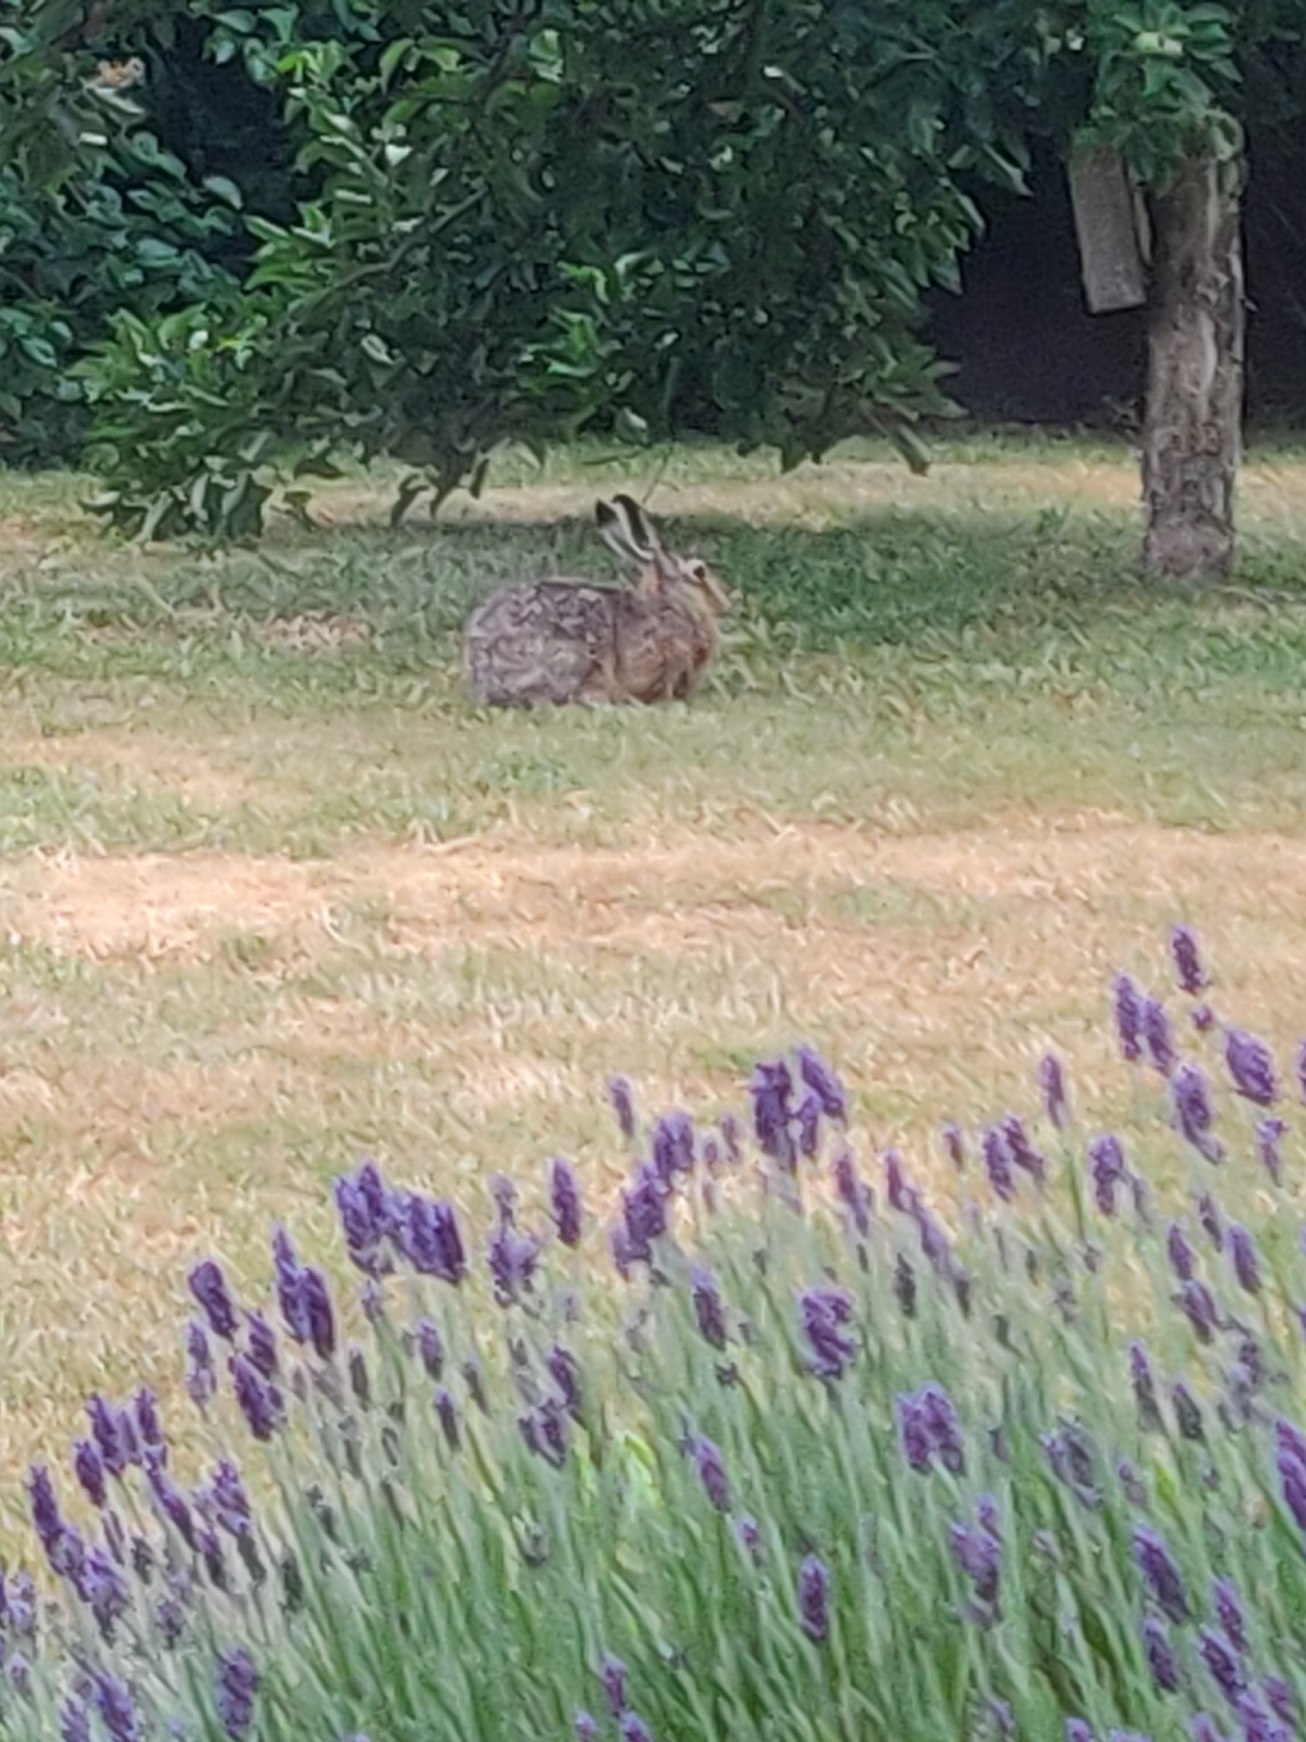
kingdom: Animalia
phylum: Chordata
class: Mammalia
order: Lagomorpha
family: Leporidae
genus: Lepus
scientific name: Lepus europaeus
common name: Hare
